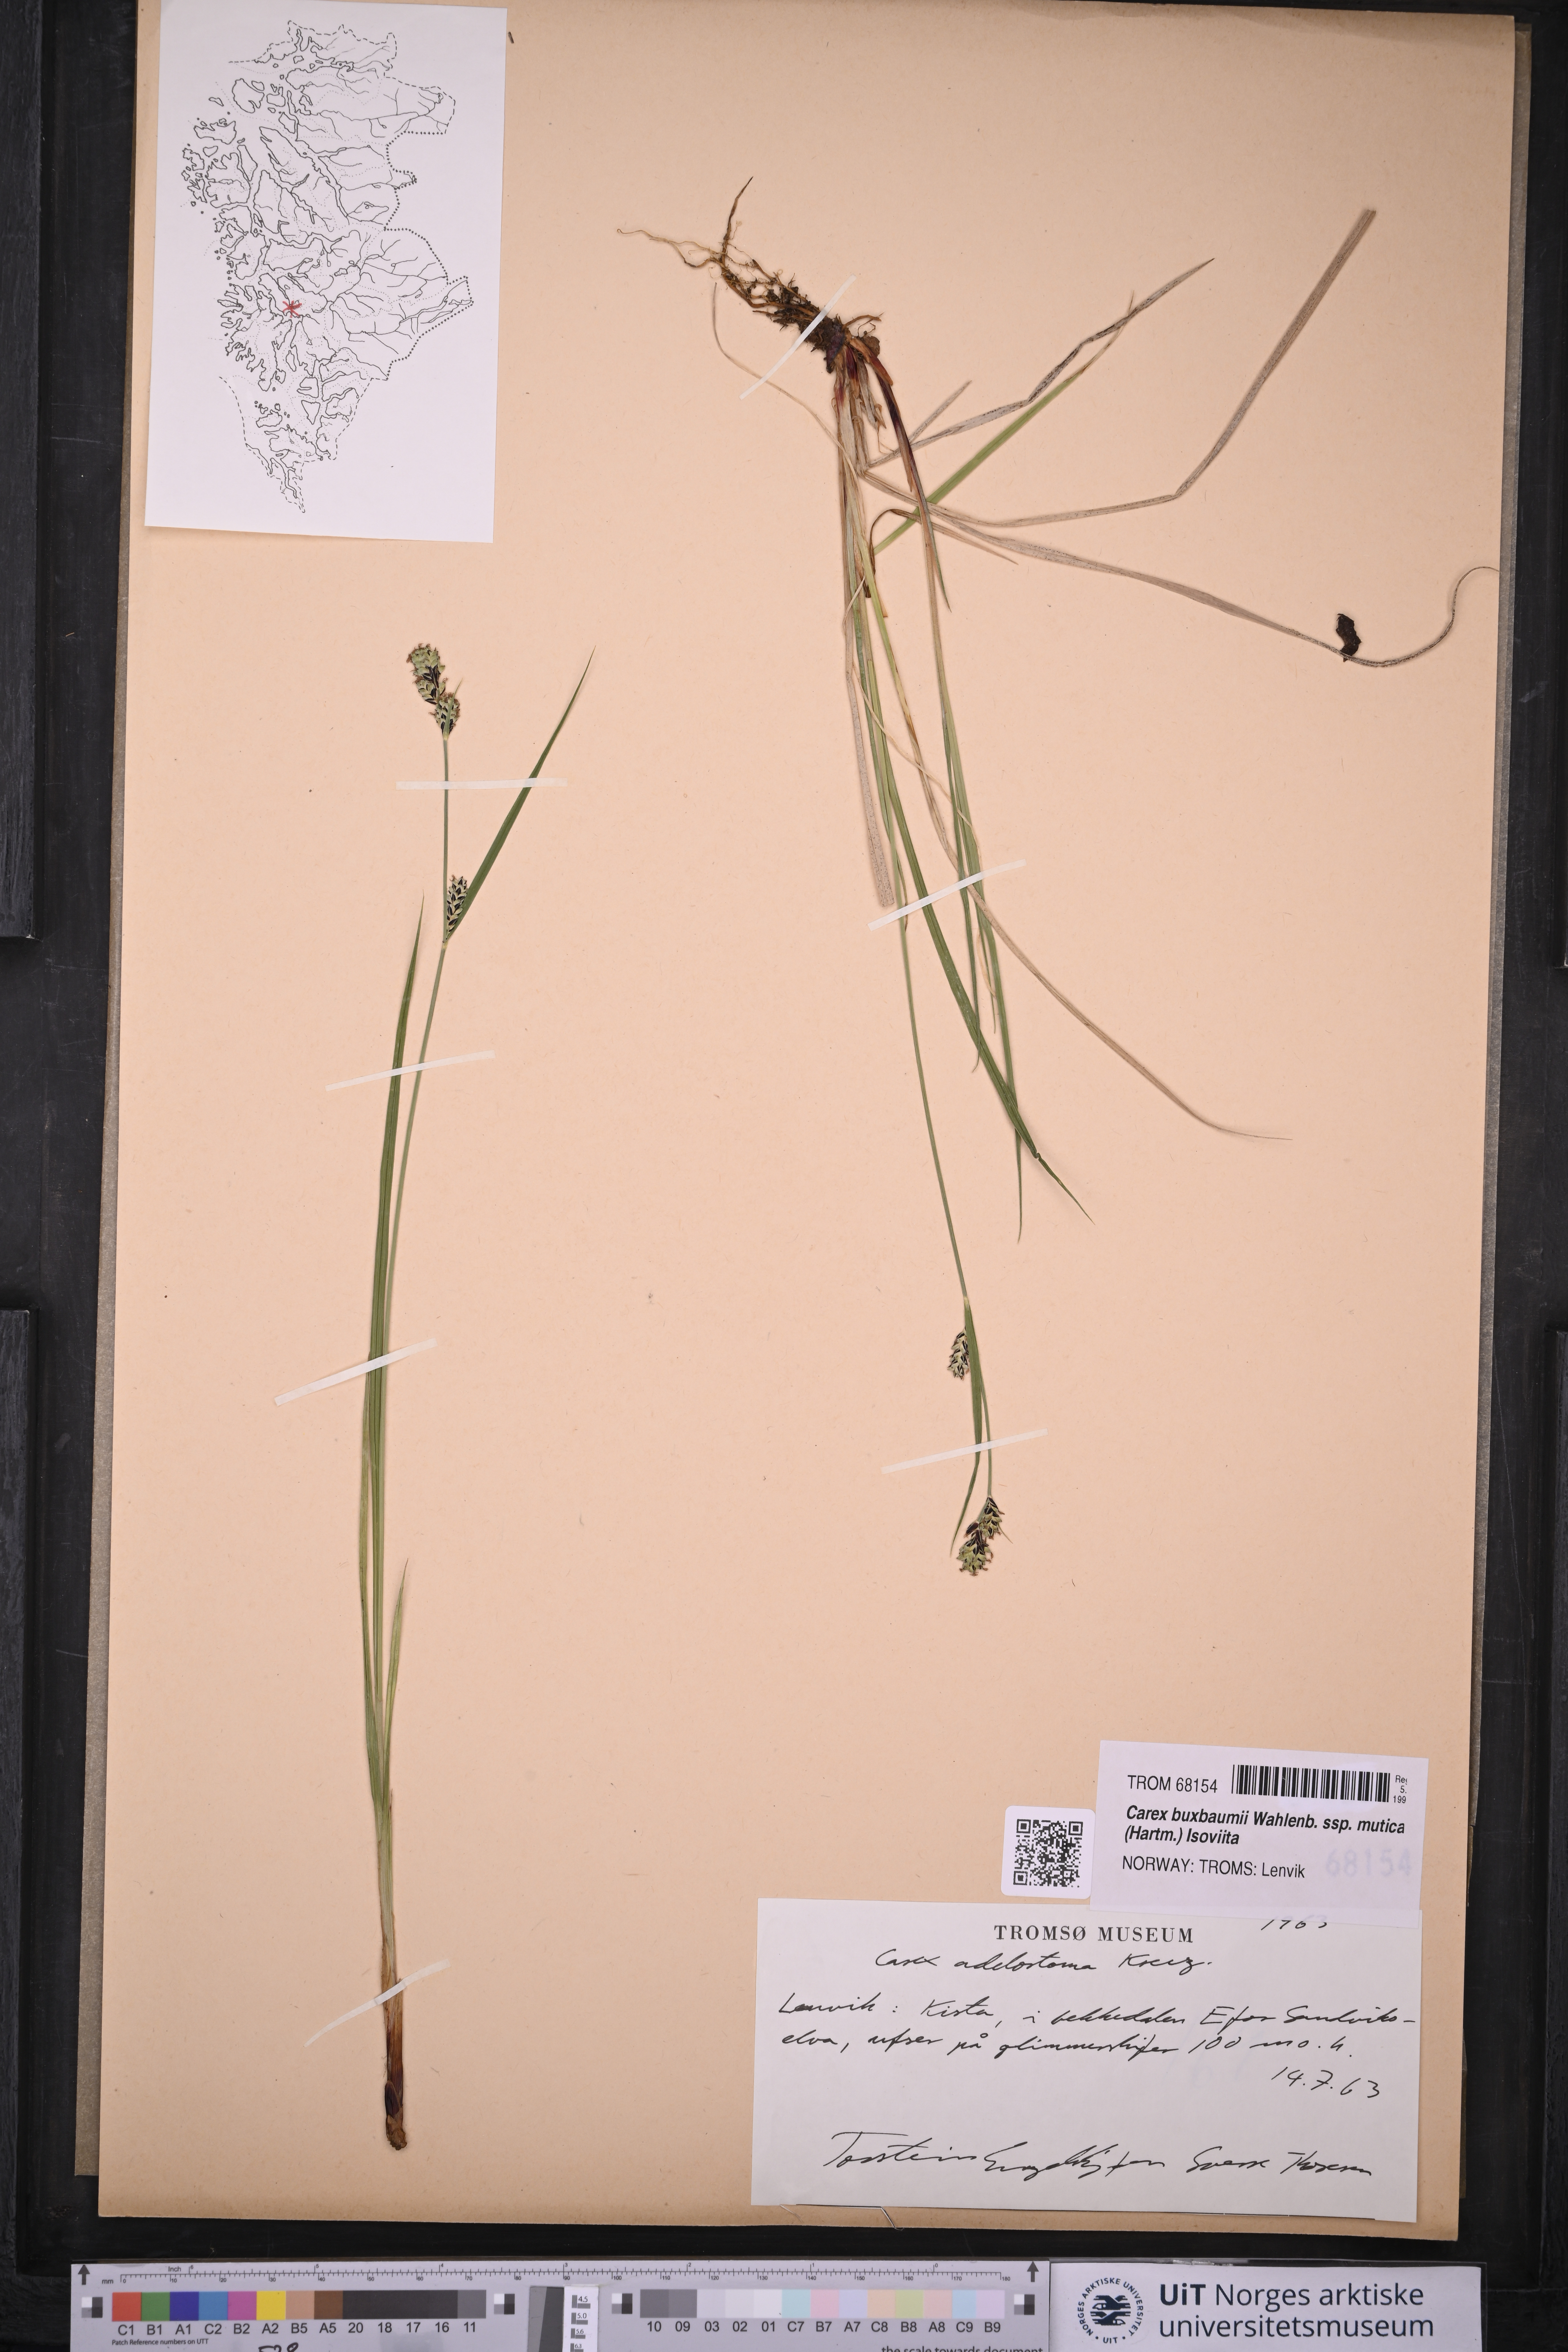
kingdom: Plantae
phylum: Tracheophyta
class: Liliopsida
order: Poales
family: Cyperaceae
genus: Carex
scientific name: Carex adelostoma
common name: Circumpolar sedge
